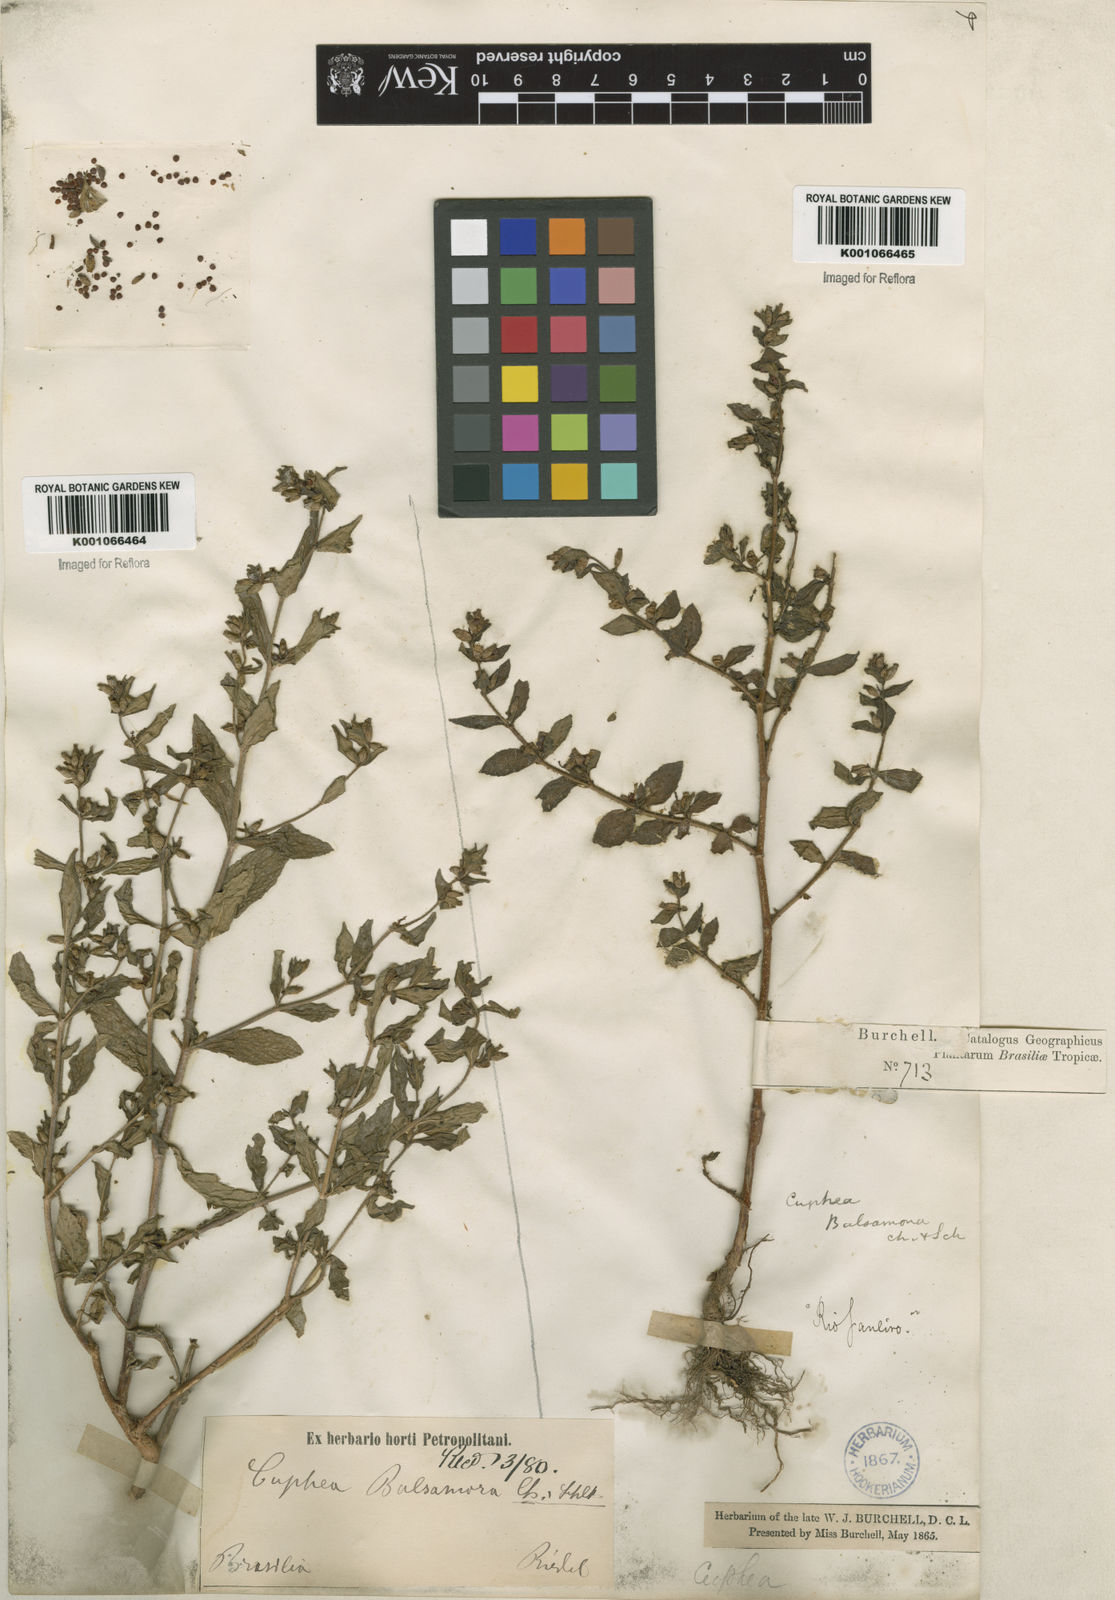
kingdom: Plantae
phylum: Tracheophyta
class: Magnoliopsida
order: Myrtales
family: Lythraceae
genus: Cuphea
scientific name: Cuphea carthagenensis
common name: Colombian waxweed
